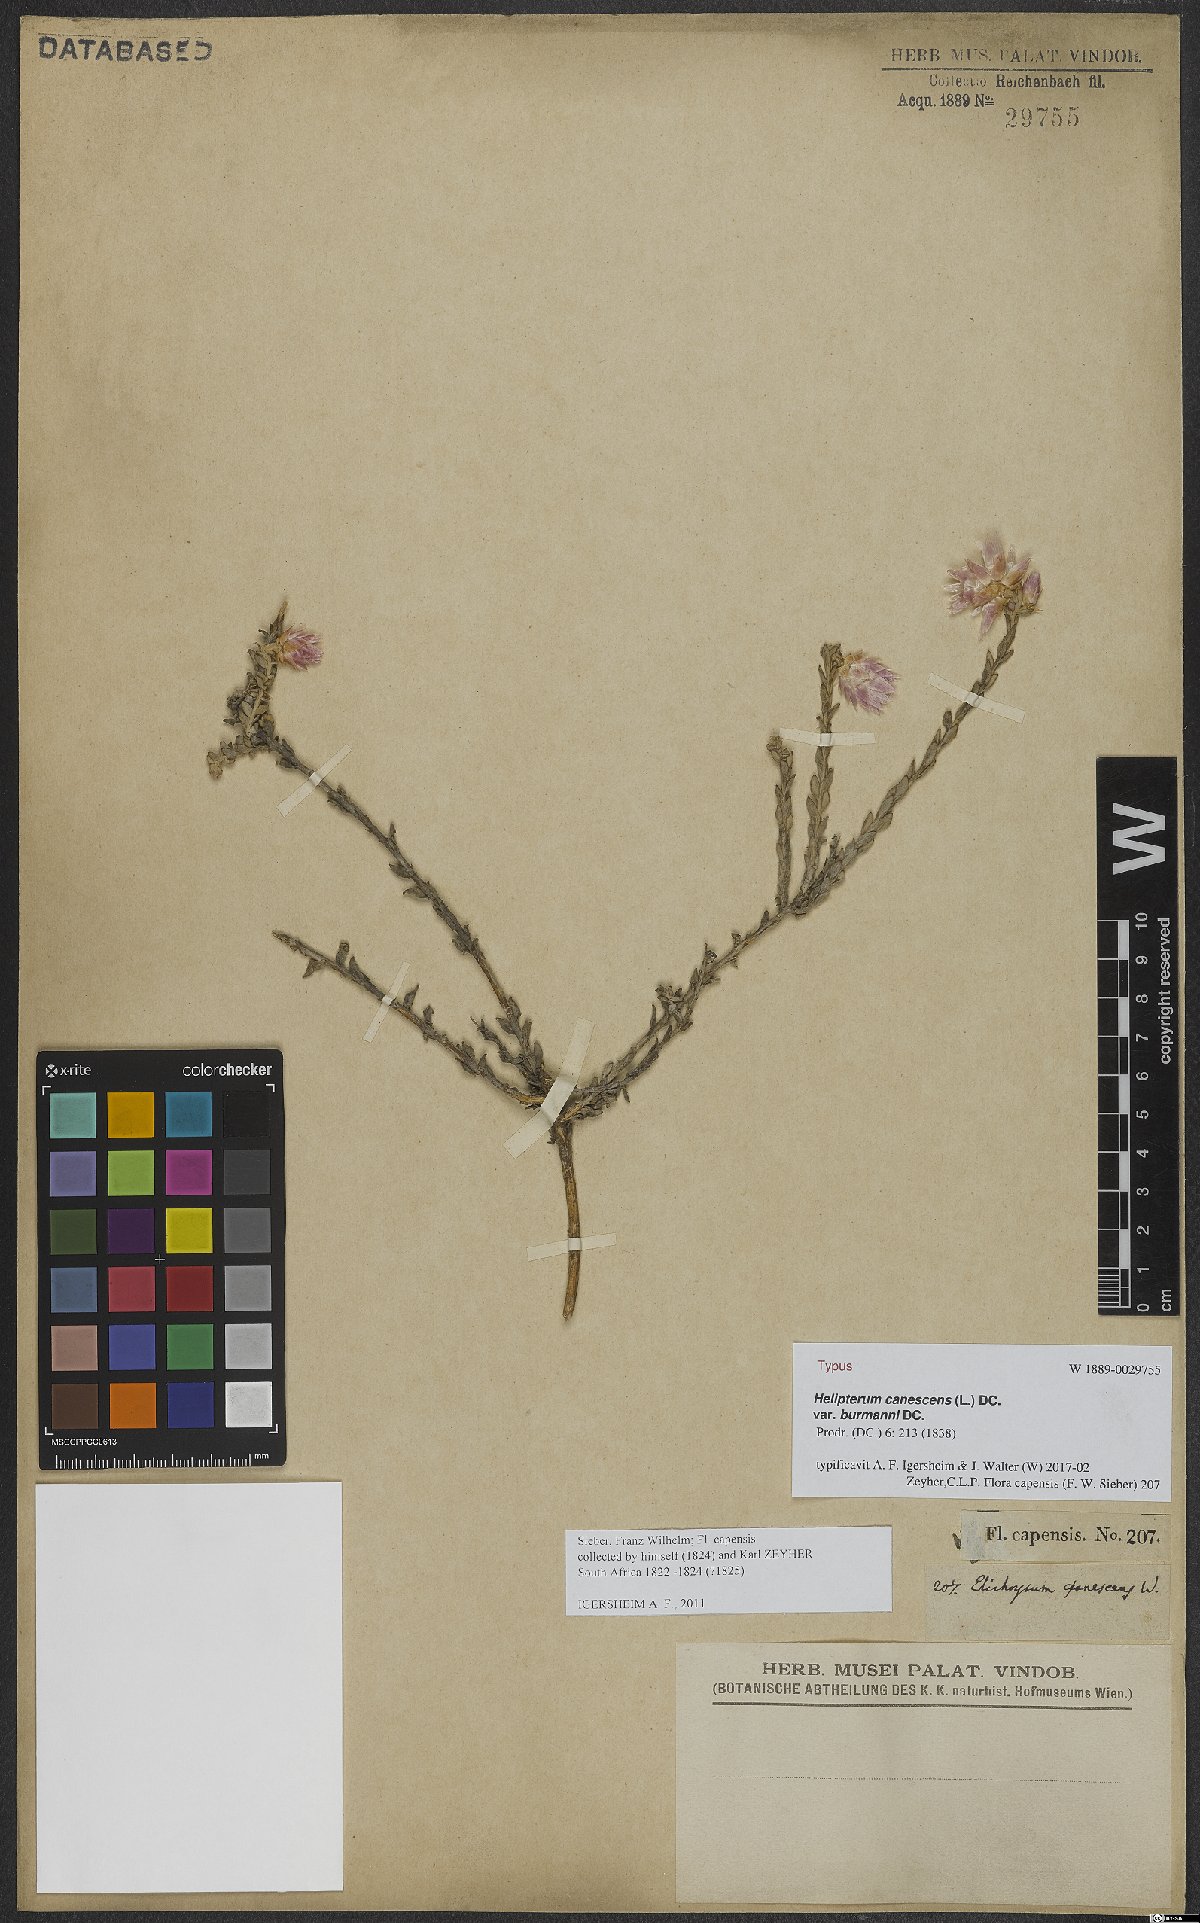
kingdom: Plantae
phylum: Tracheophyta
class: Magnoliopsida
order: Asterales
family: Asteraceae
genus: Syncarpha
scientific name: Syncarpha canescens
